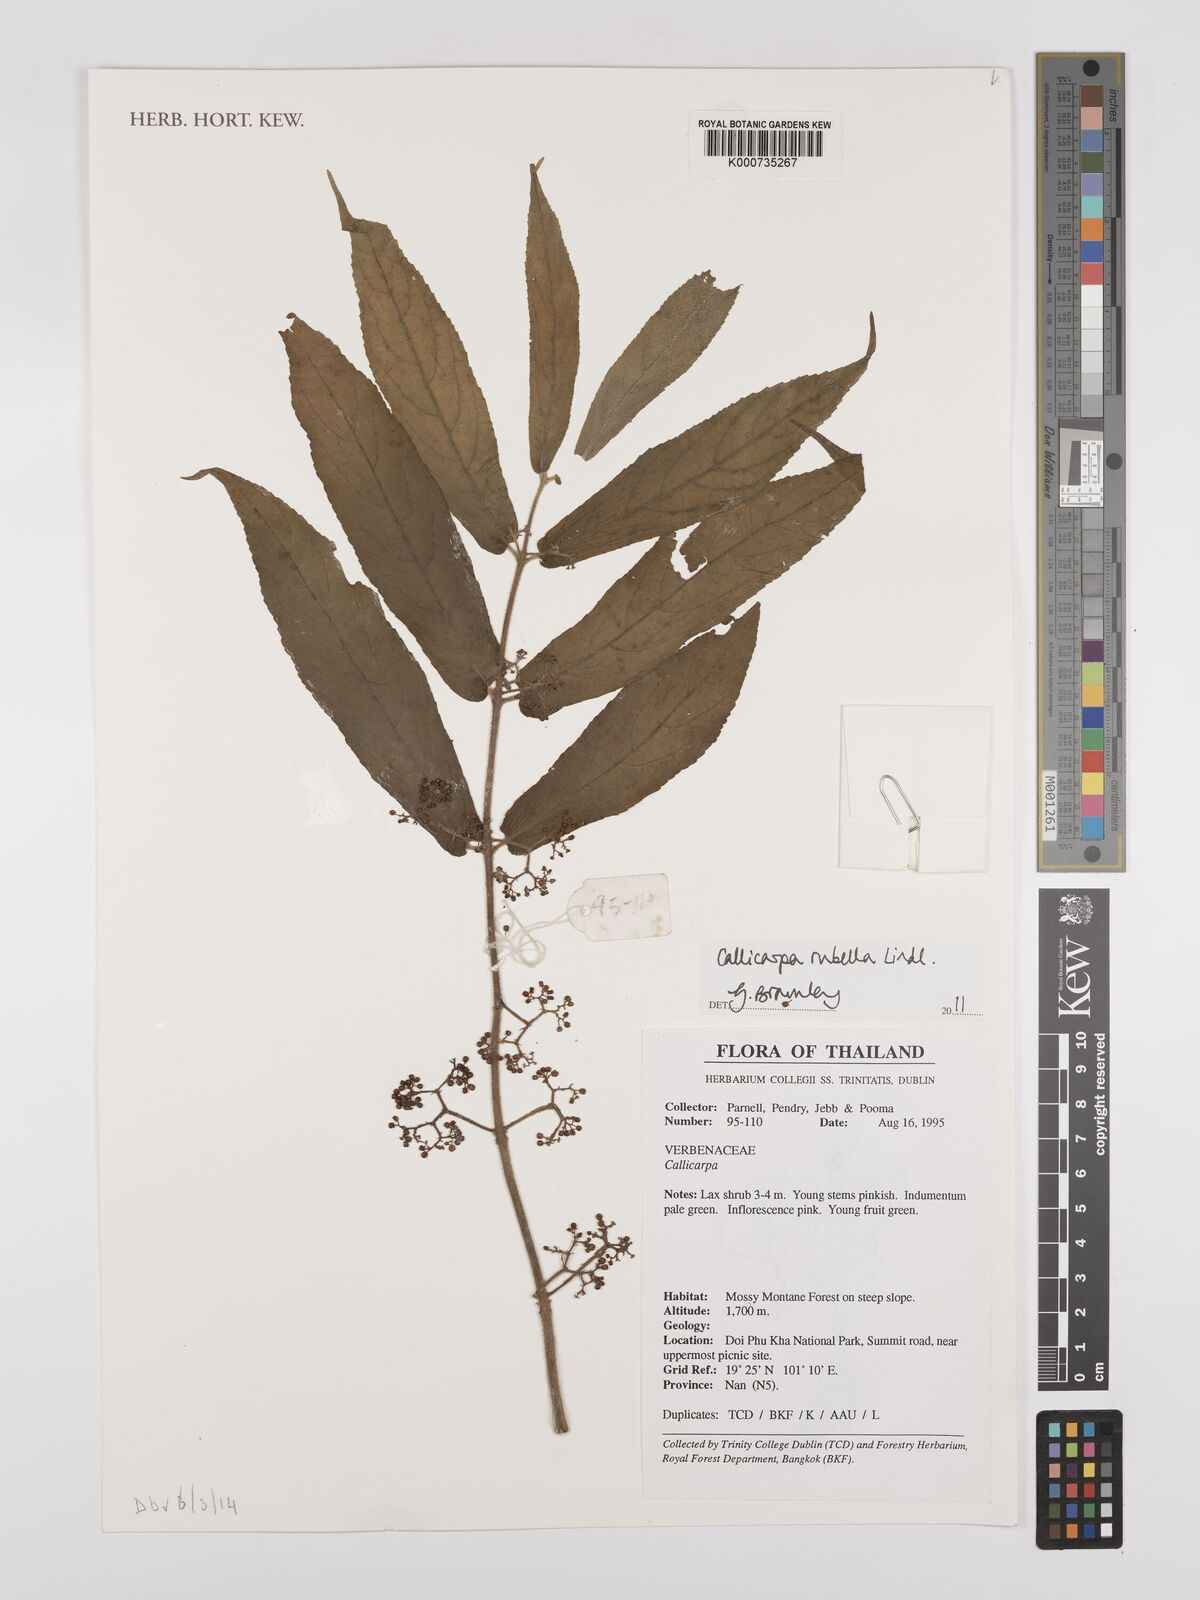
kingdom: Plantae
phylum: Tracheophyta
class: Magnoliopsida
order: Lamiales
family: Lamiaceae
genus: Callicarpa
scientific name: Callicarpa rubella
